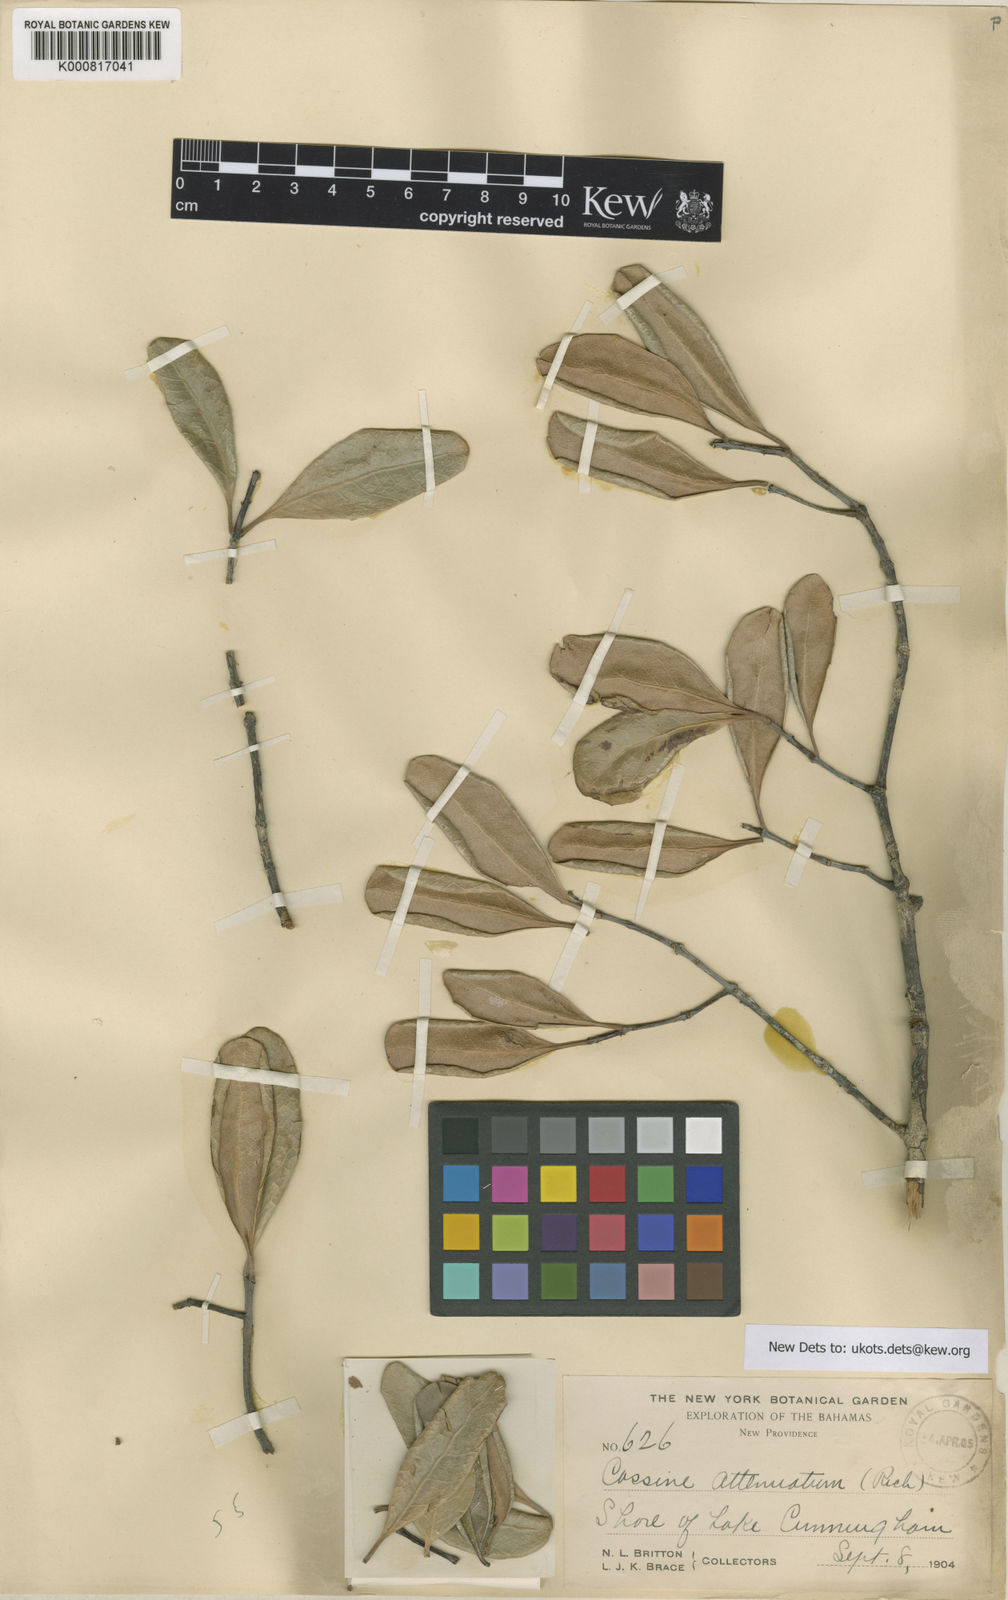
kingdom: Plantae
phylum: Tracheophyta
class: Magnoliopsida
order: Celastrales
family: Celastraceae
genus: Elaeodendron
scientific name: Elaeodendron xylocarpum
